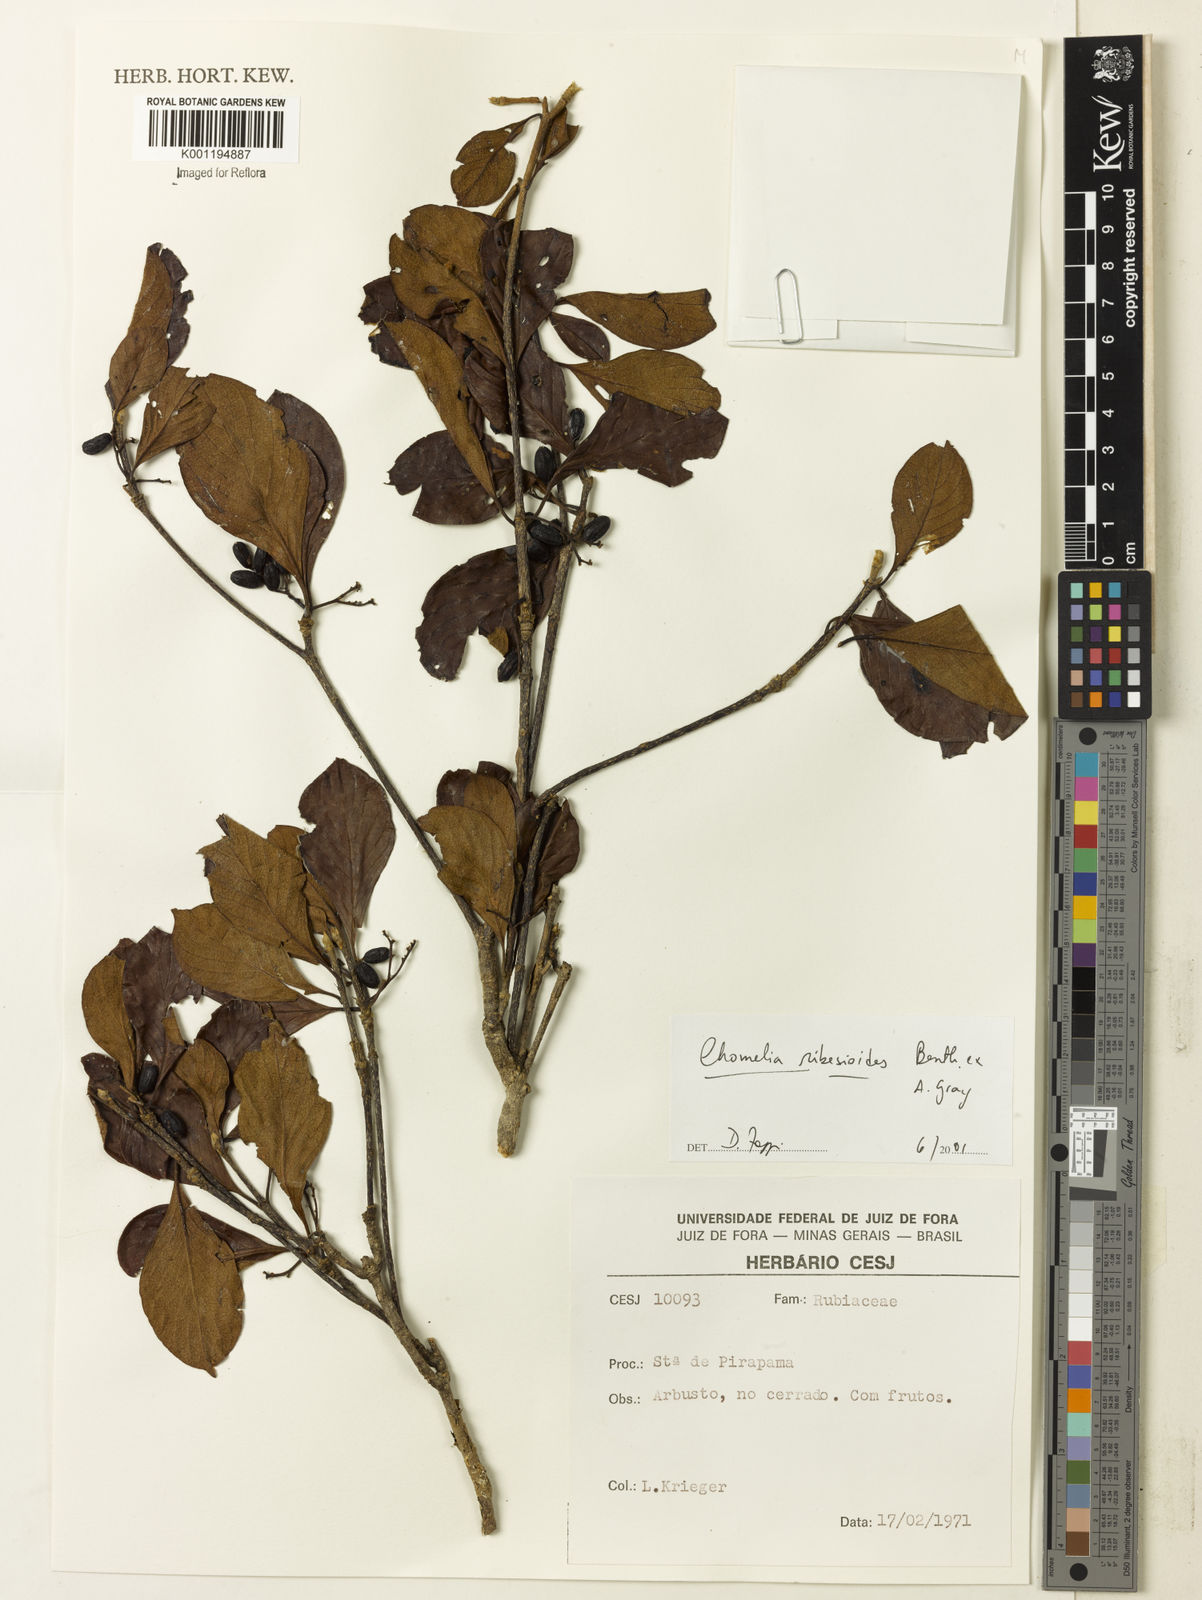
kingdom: Plantae
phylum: Tracheophyta
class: Magnoliopsida
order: Gentianales
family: Rubiaceae
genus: Chomelia
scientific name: Chomelia ribesioides
